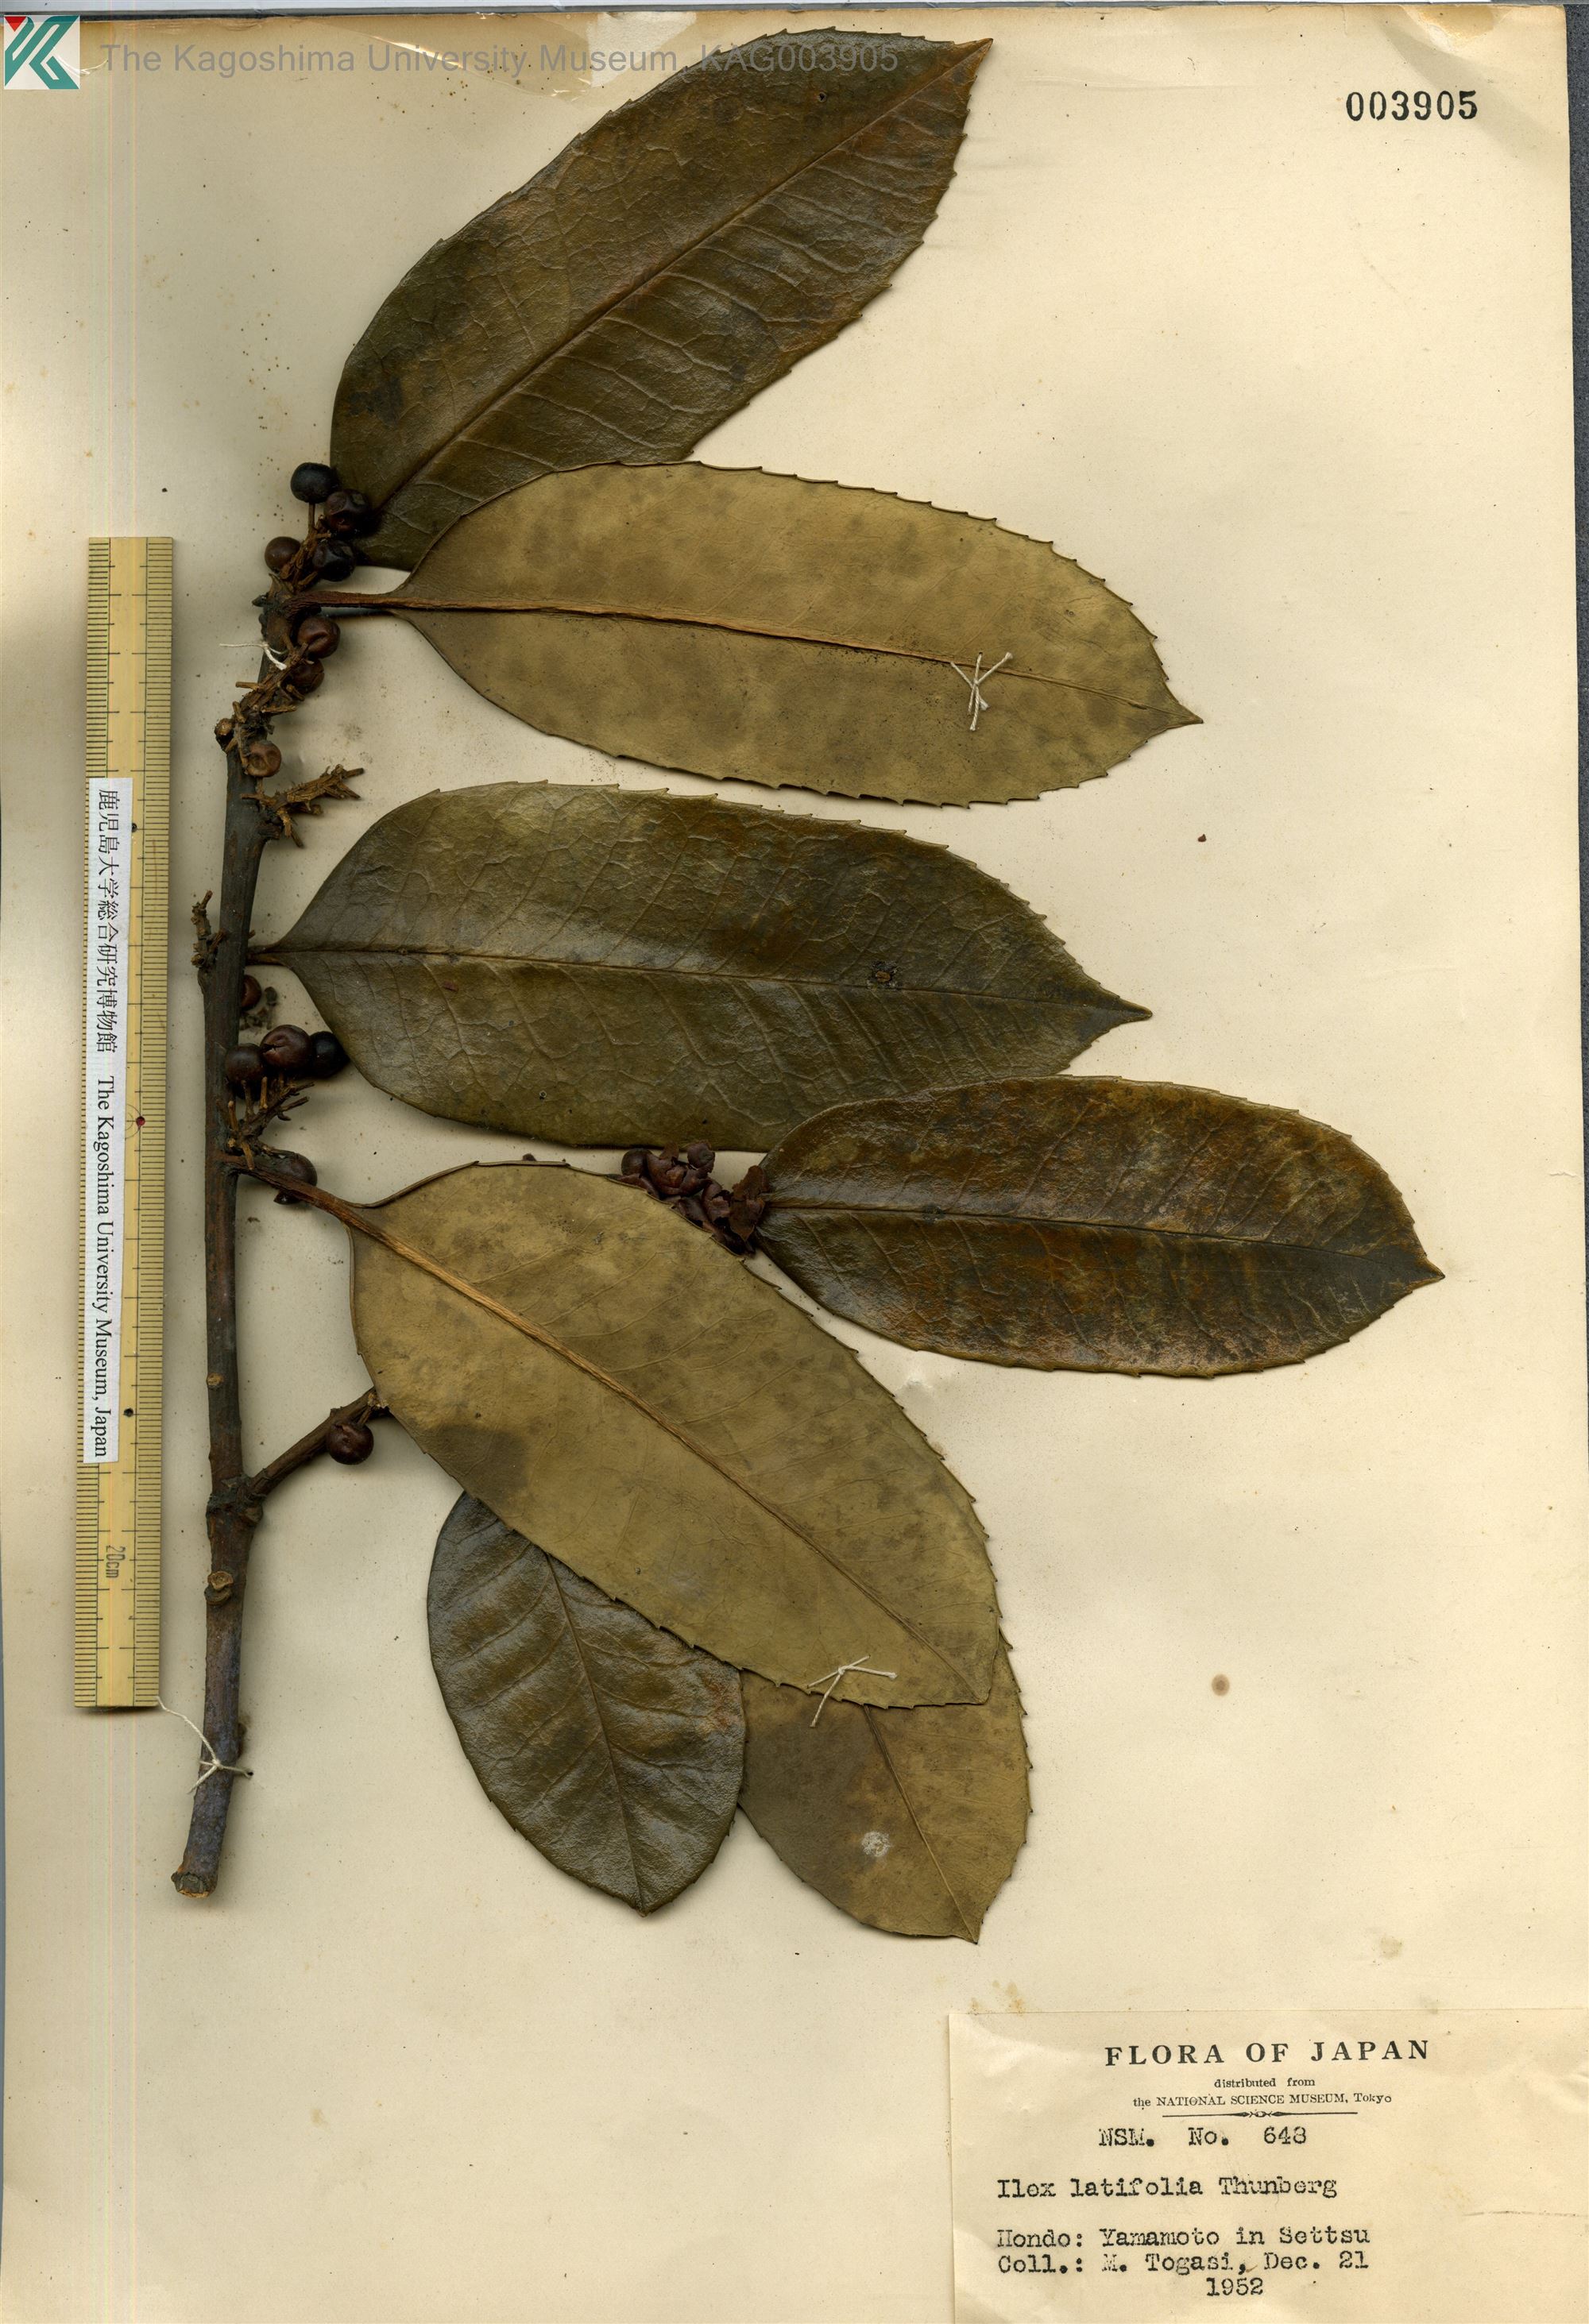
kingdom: Plantae
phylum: Tracheophyta
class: Magnoliopsida
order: Aquifoliales
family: Aquifoliaceae
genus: Ilex
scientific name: Ilex latifolia
